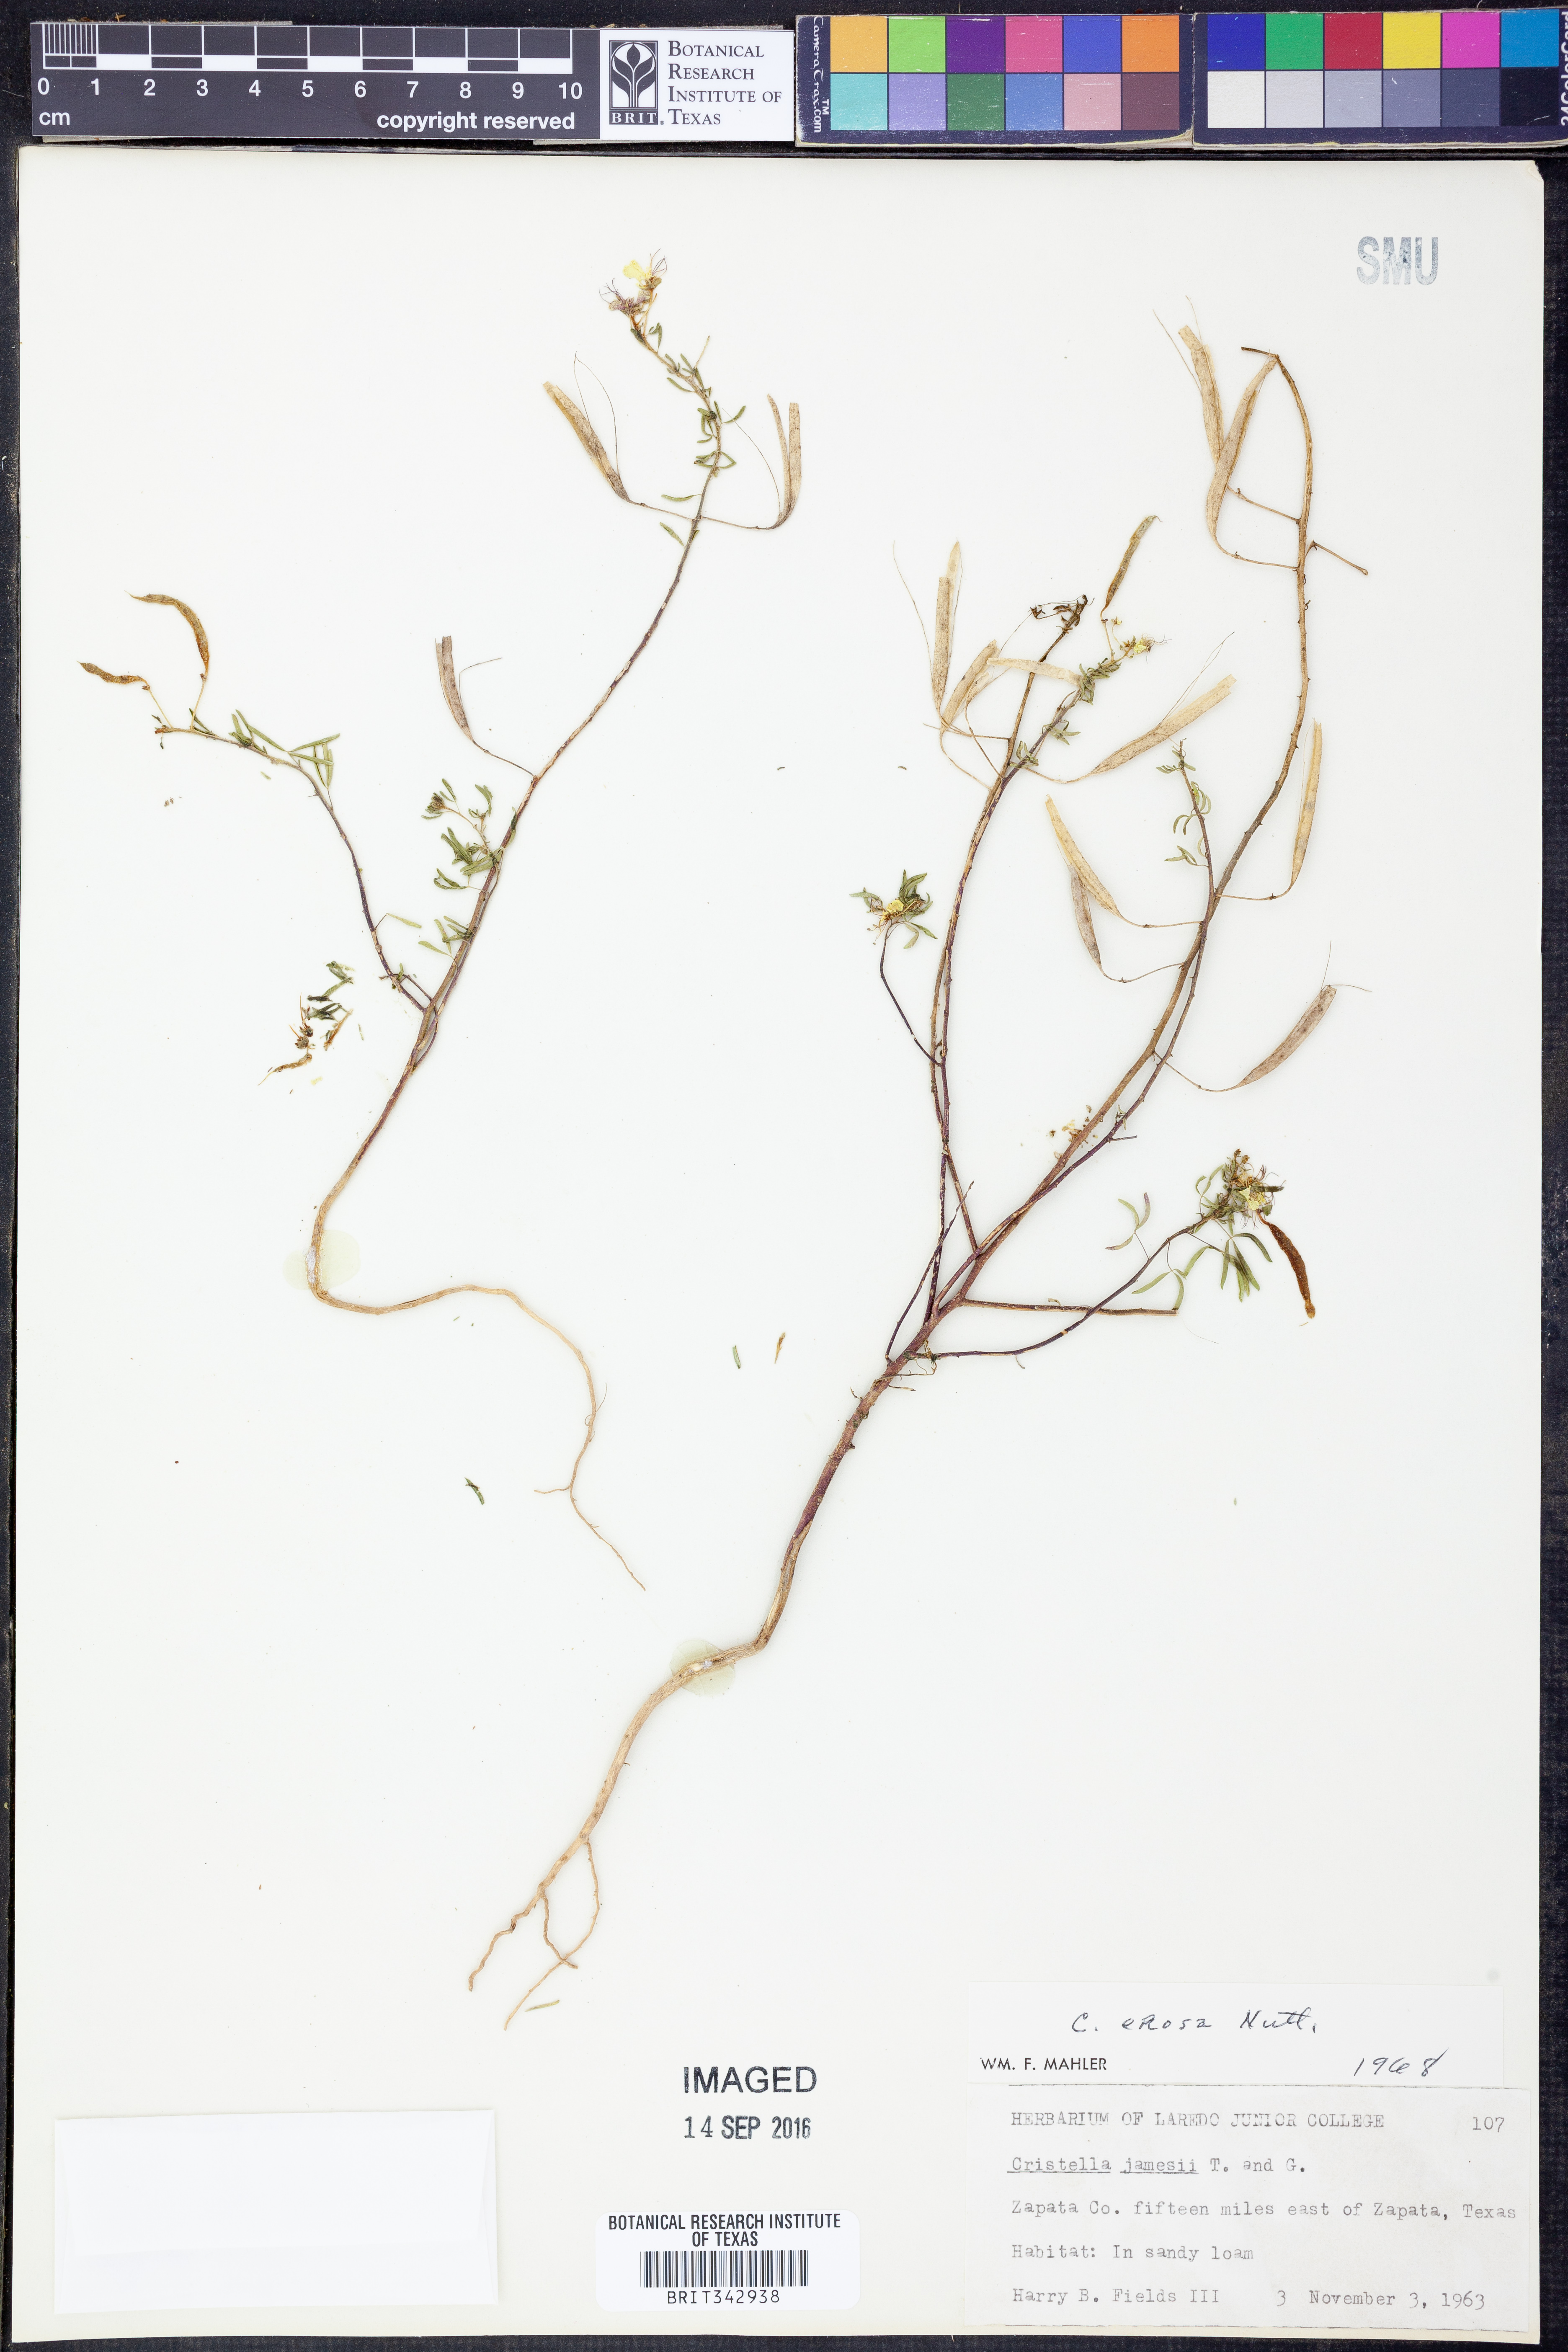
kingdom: Plantae
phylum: Tracheophyta
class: Magnoliopsida
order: Brassicales
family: Cleomaceae
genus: Polanisia
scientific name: Polanisia jamesii
